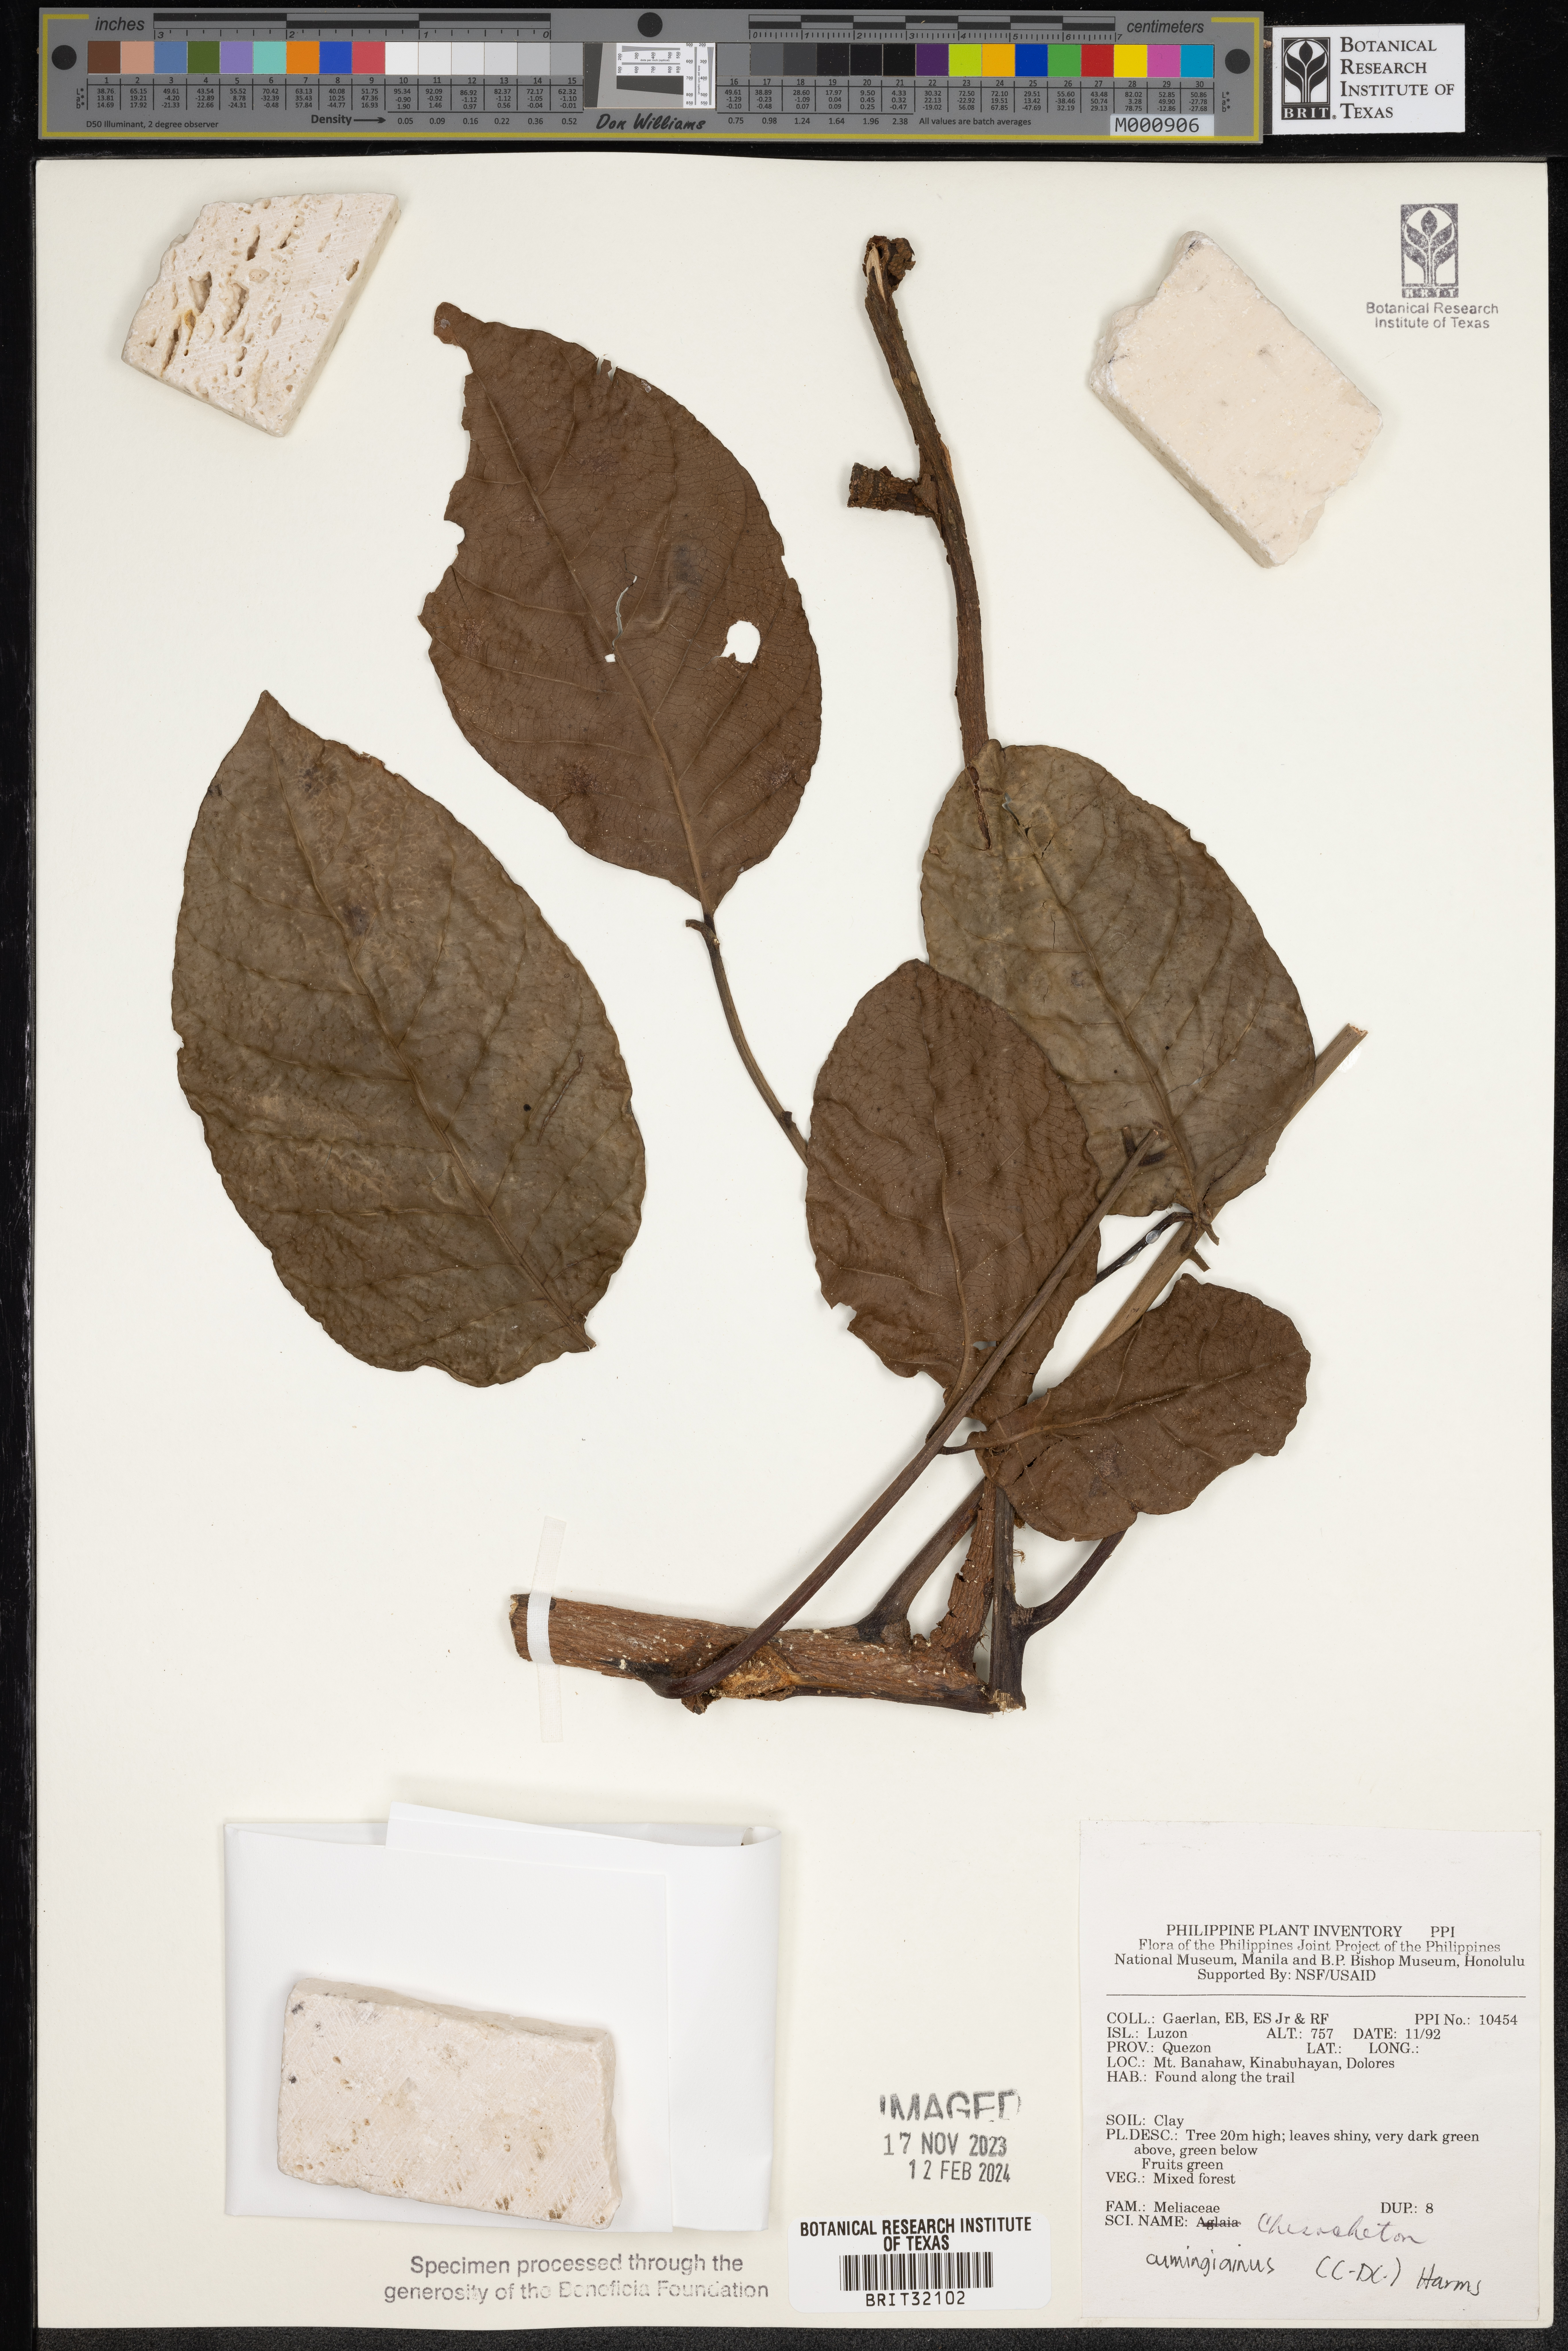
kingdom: Plantae
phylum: Tracheophyta
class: Magnoliopsida
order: Sapindales
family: Meliaceae
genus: Chisocheton
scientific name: Chisocheton cumingianus
